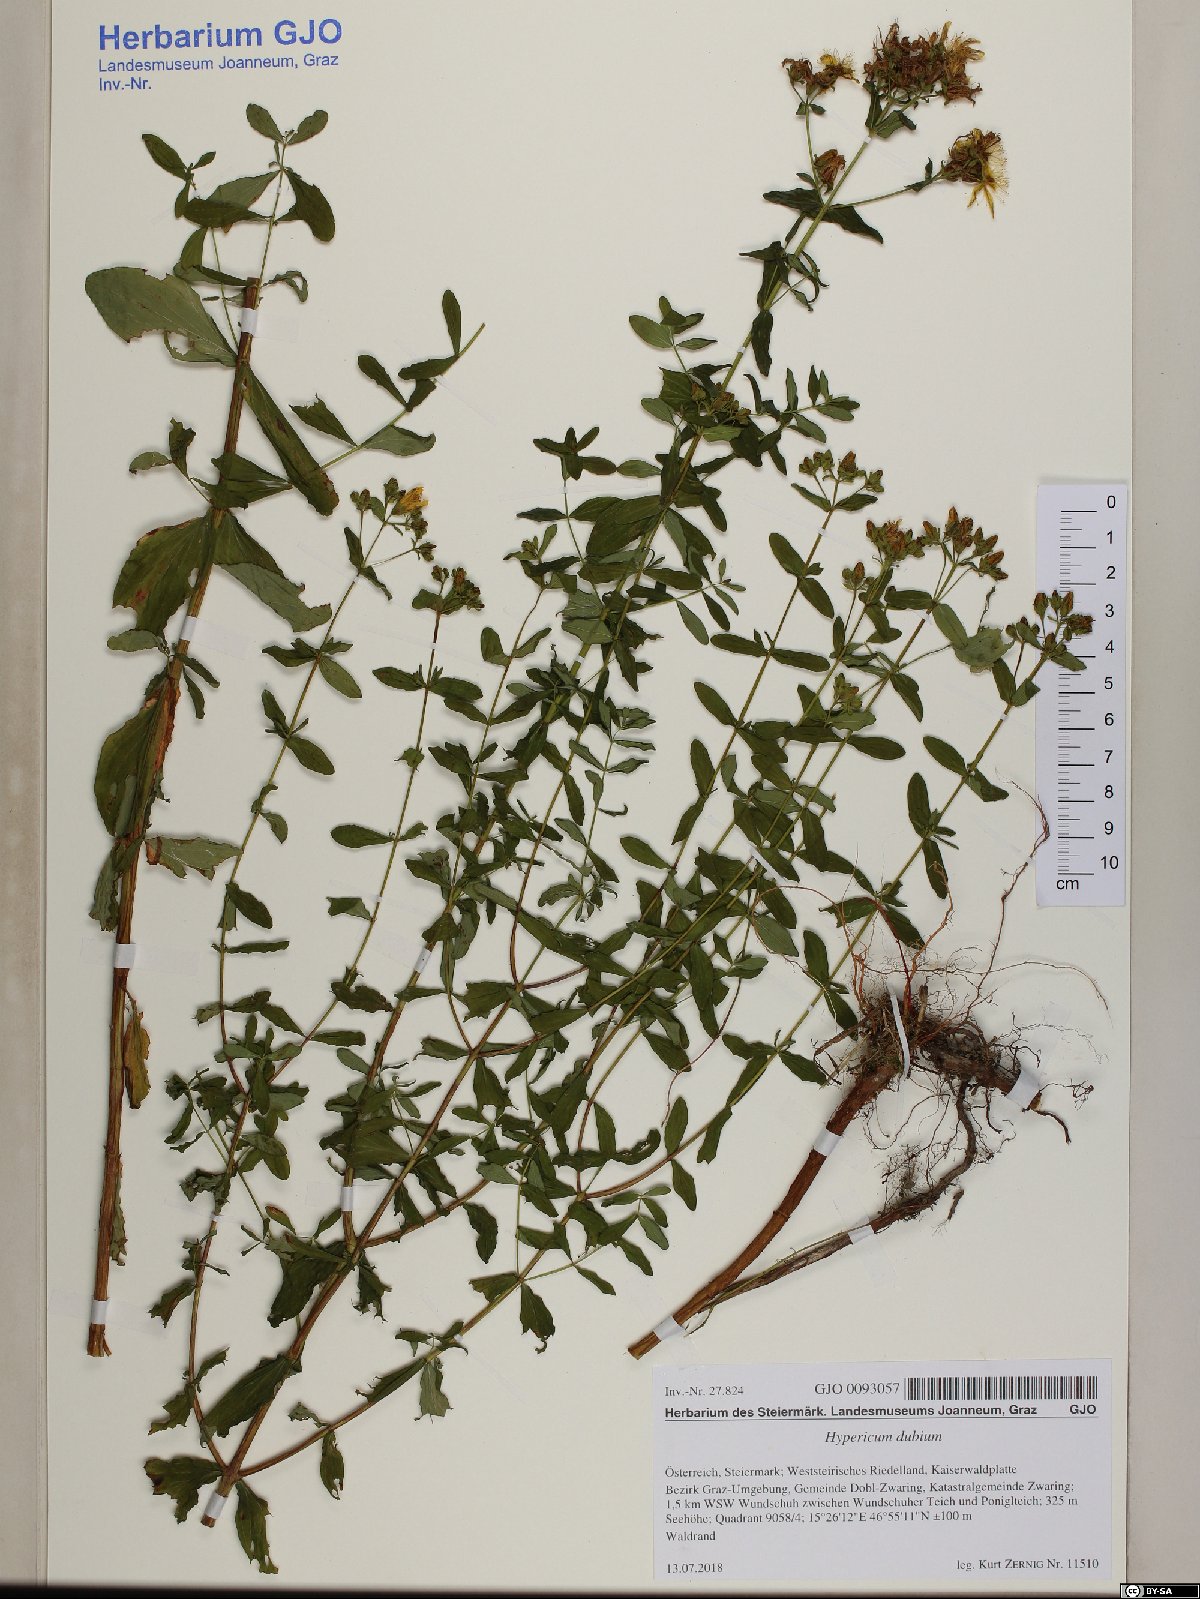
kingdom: Plantae
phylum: Tracheophyta
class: Magnoliopsida
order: Malpighiales
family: Hypericaceae
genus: Hypericum
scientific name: Hypericum dubium
